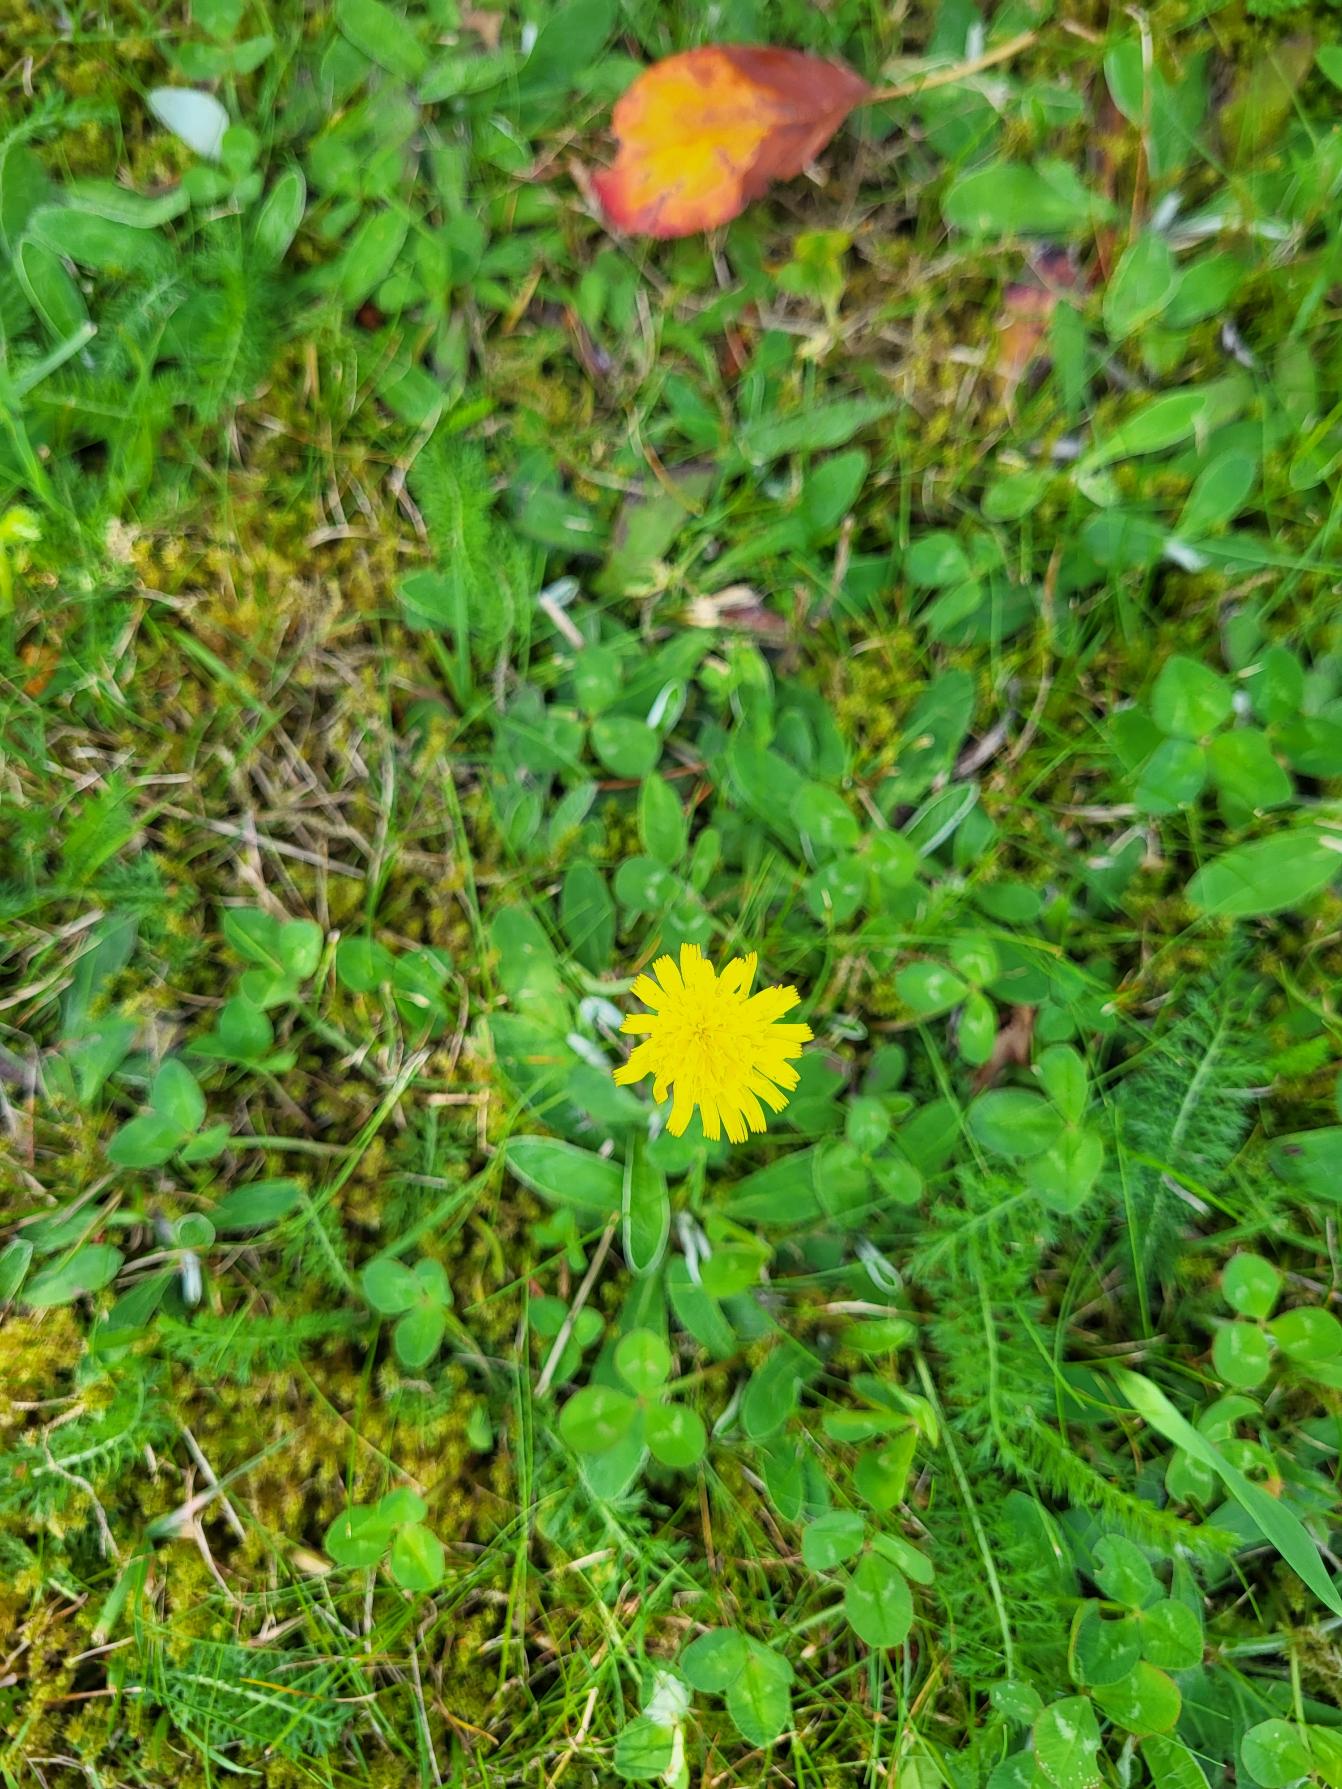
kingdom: Plantae
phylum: Tracheophyta
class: Magnoliopsida
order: Asterales
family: Asteraceae
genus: Pilosella
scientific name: Pilosella officinarum
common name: Håret høgeurt
